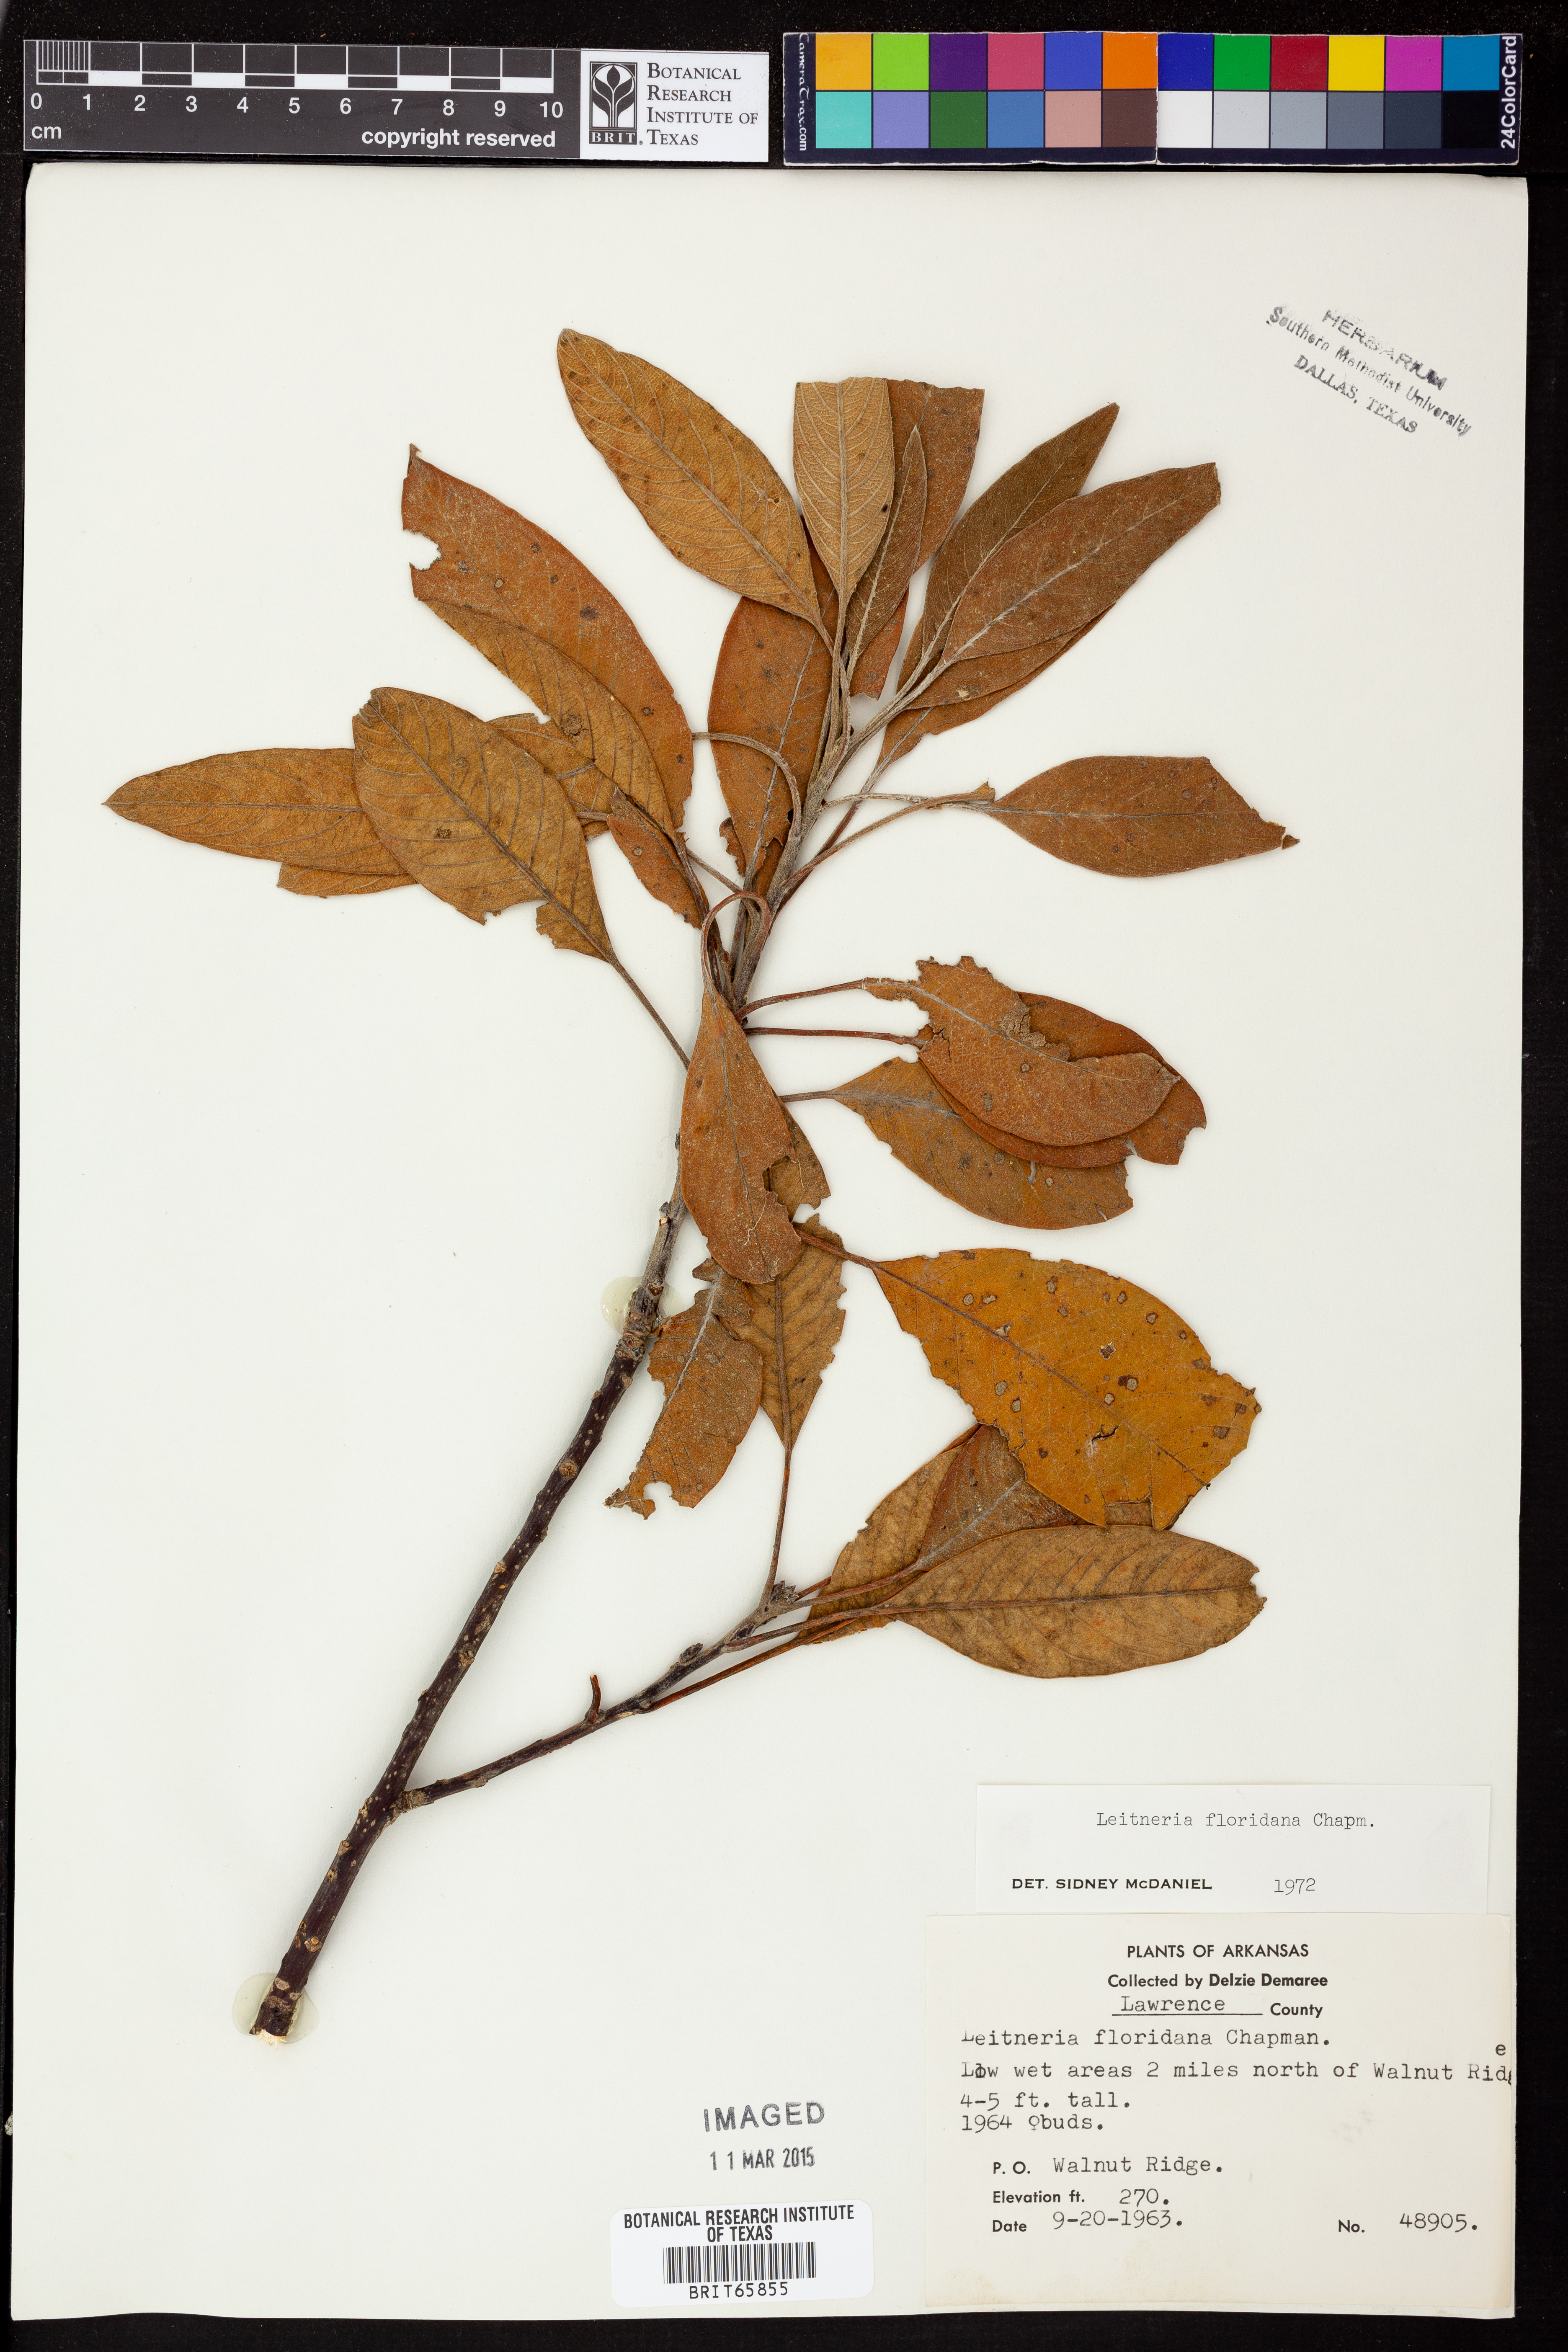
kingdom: Plantae
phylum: Tracheophyta
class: Magnoliopsida
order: Sapindales
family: Simaroubaceae
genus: Leitneria
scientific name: Leitneria floridana
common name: Corkwood
